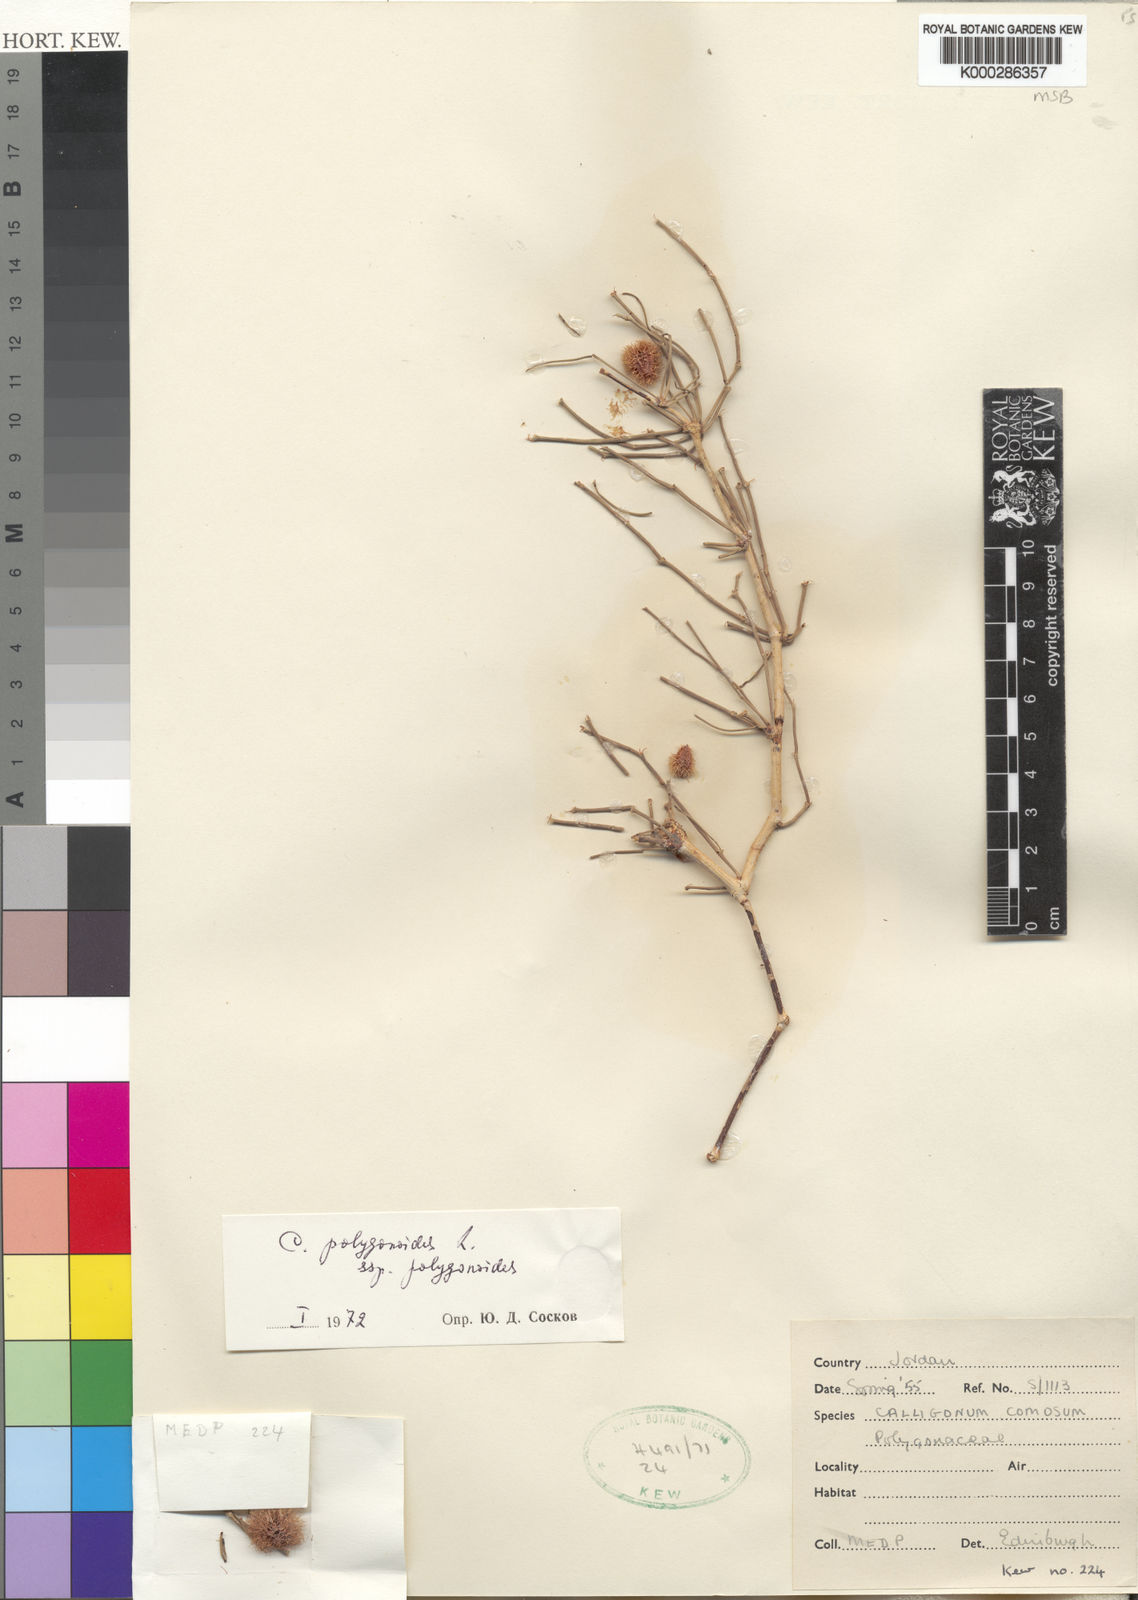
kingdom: Plantae
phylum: Tracheophyta
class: Magnoliopsida
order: Caryophyllales
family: Polygonaceae
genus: Calligonum
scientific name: Calligonum polygonoides
